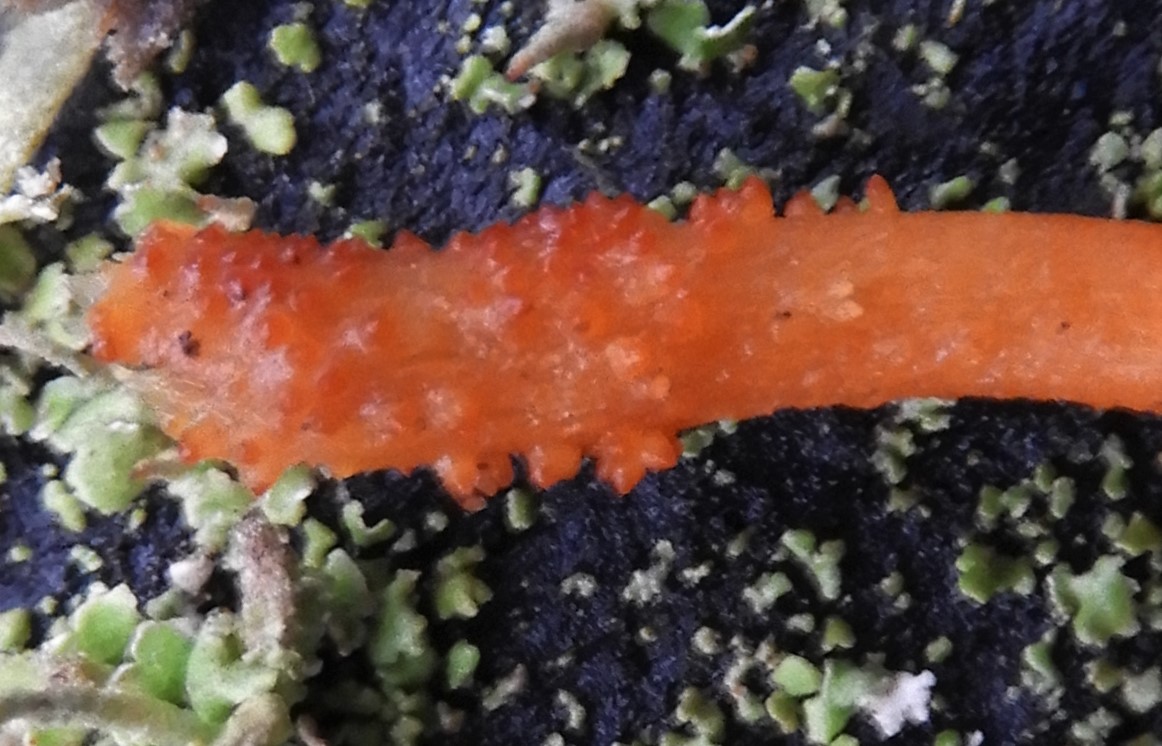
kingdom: Fungi
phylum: Ascomycota
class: Sordariomycetes
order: Hypocreales
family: Cordycipitaceae
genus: Cordyceps
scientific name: Cordyceps militaris
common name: puppe-snyltekølle
